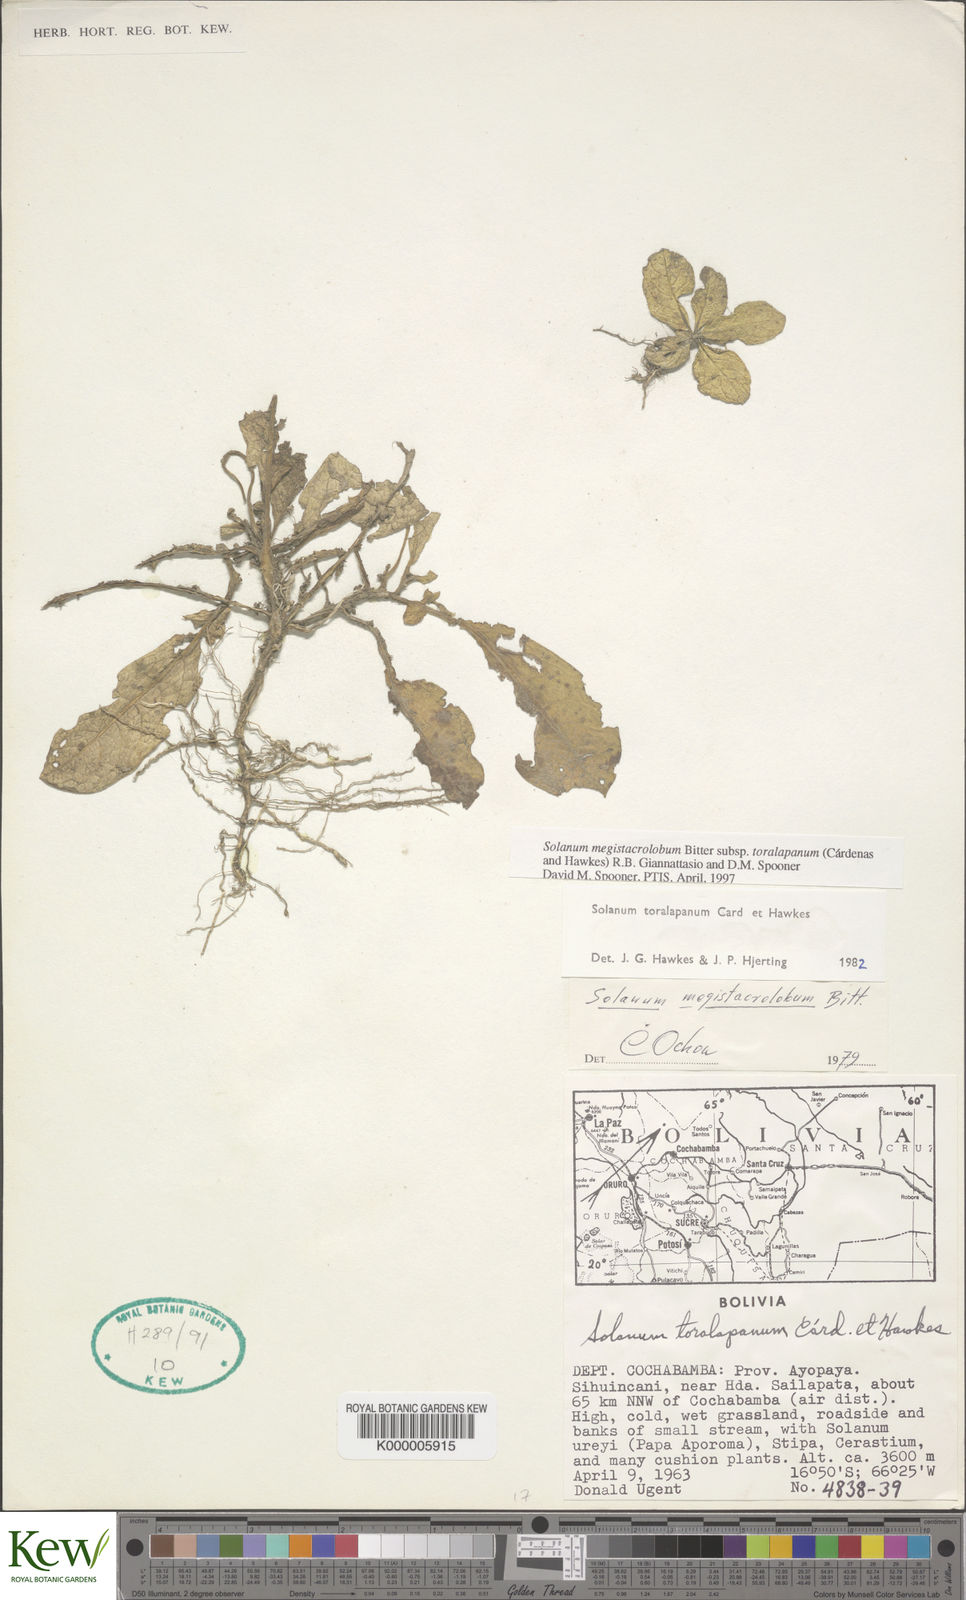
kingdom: Plantae
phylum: Tracheophyta
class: Magnoliopsida
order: Solanales
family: Solanaceae
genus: Solanum
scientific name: Solanum boliviense
